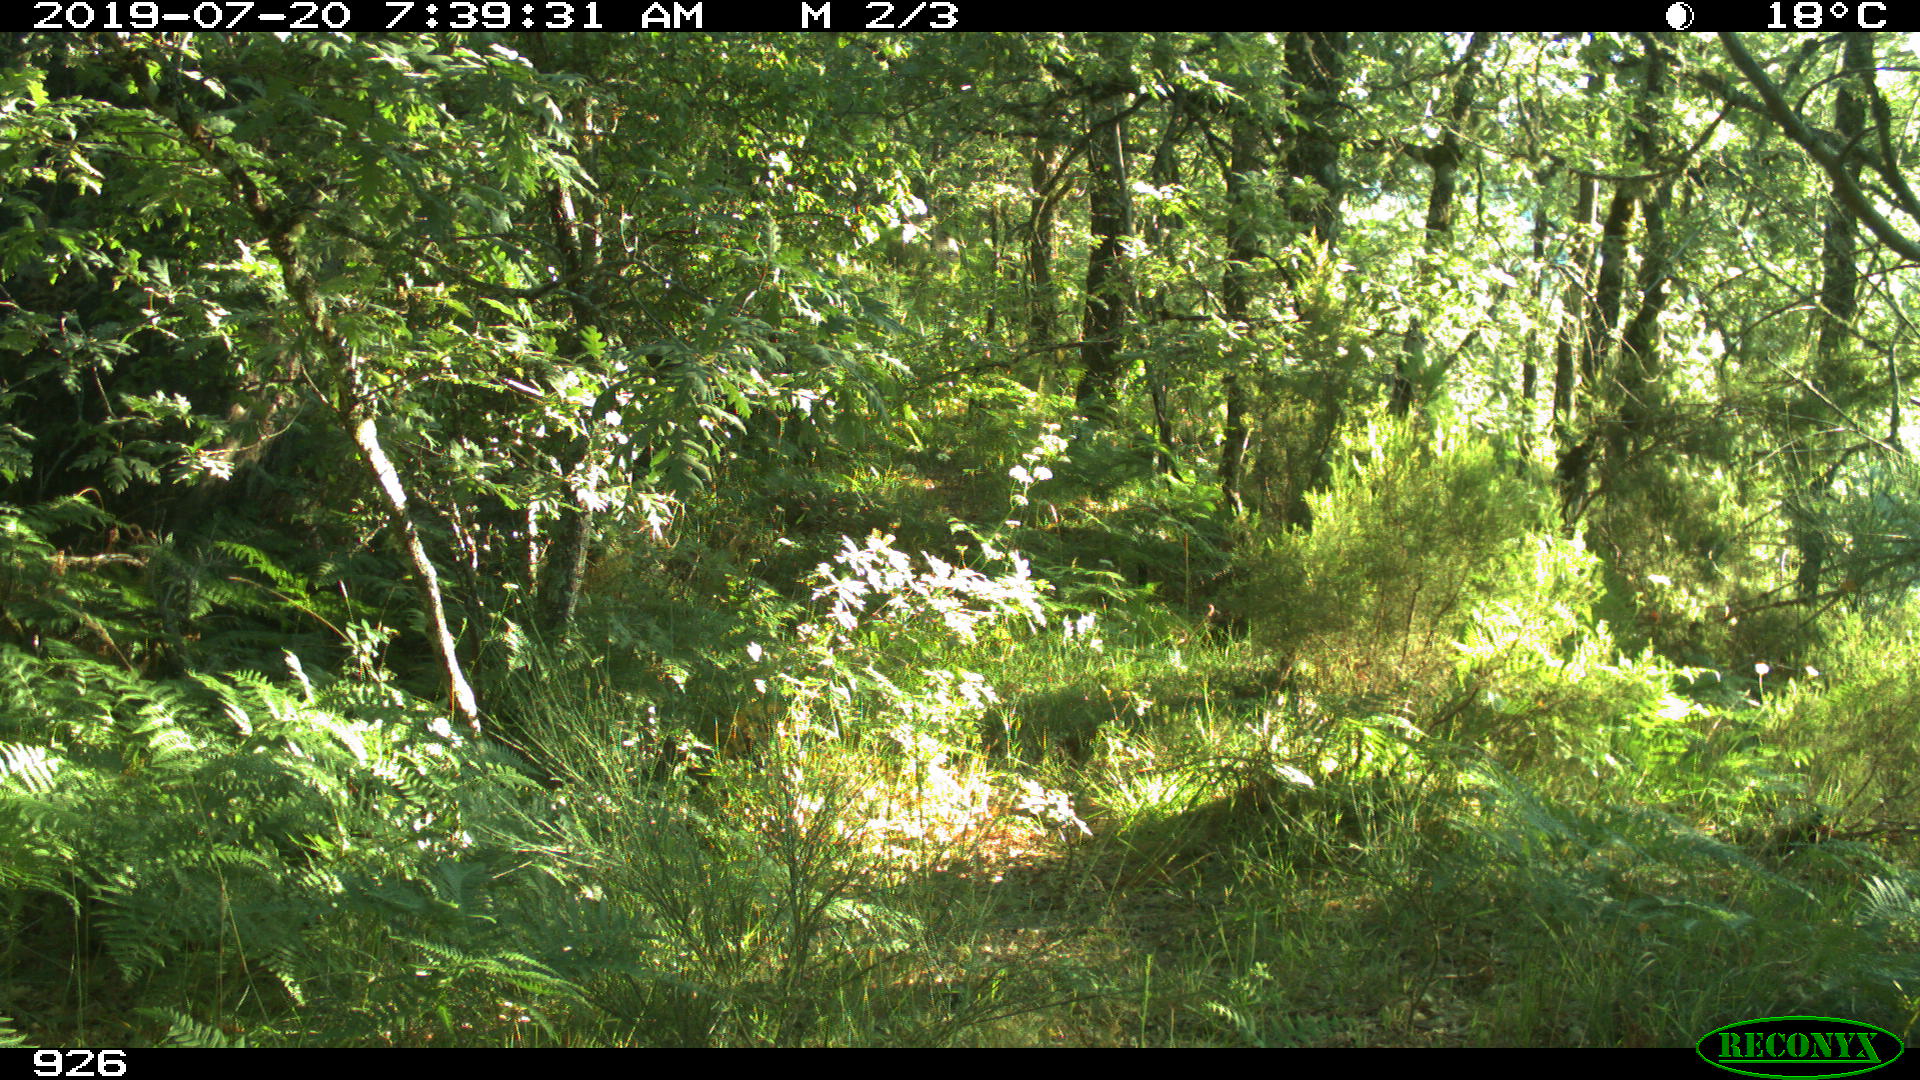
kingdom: Animalia
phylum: Chordata
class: Mammalia
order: Artiodactyla
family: Cervidae
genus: Capreolus
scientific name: Capreolus capreolus
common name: Western roe deer
